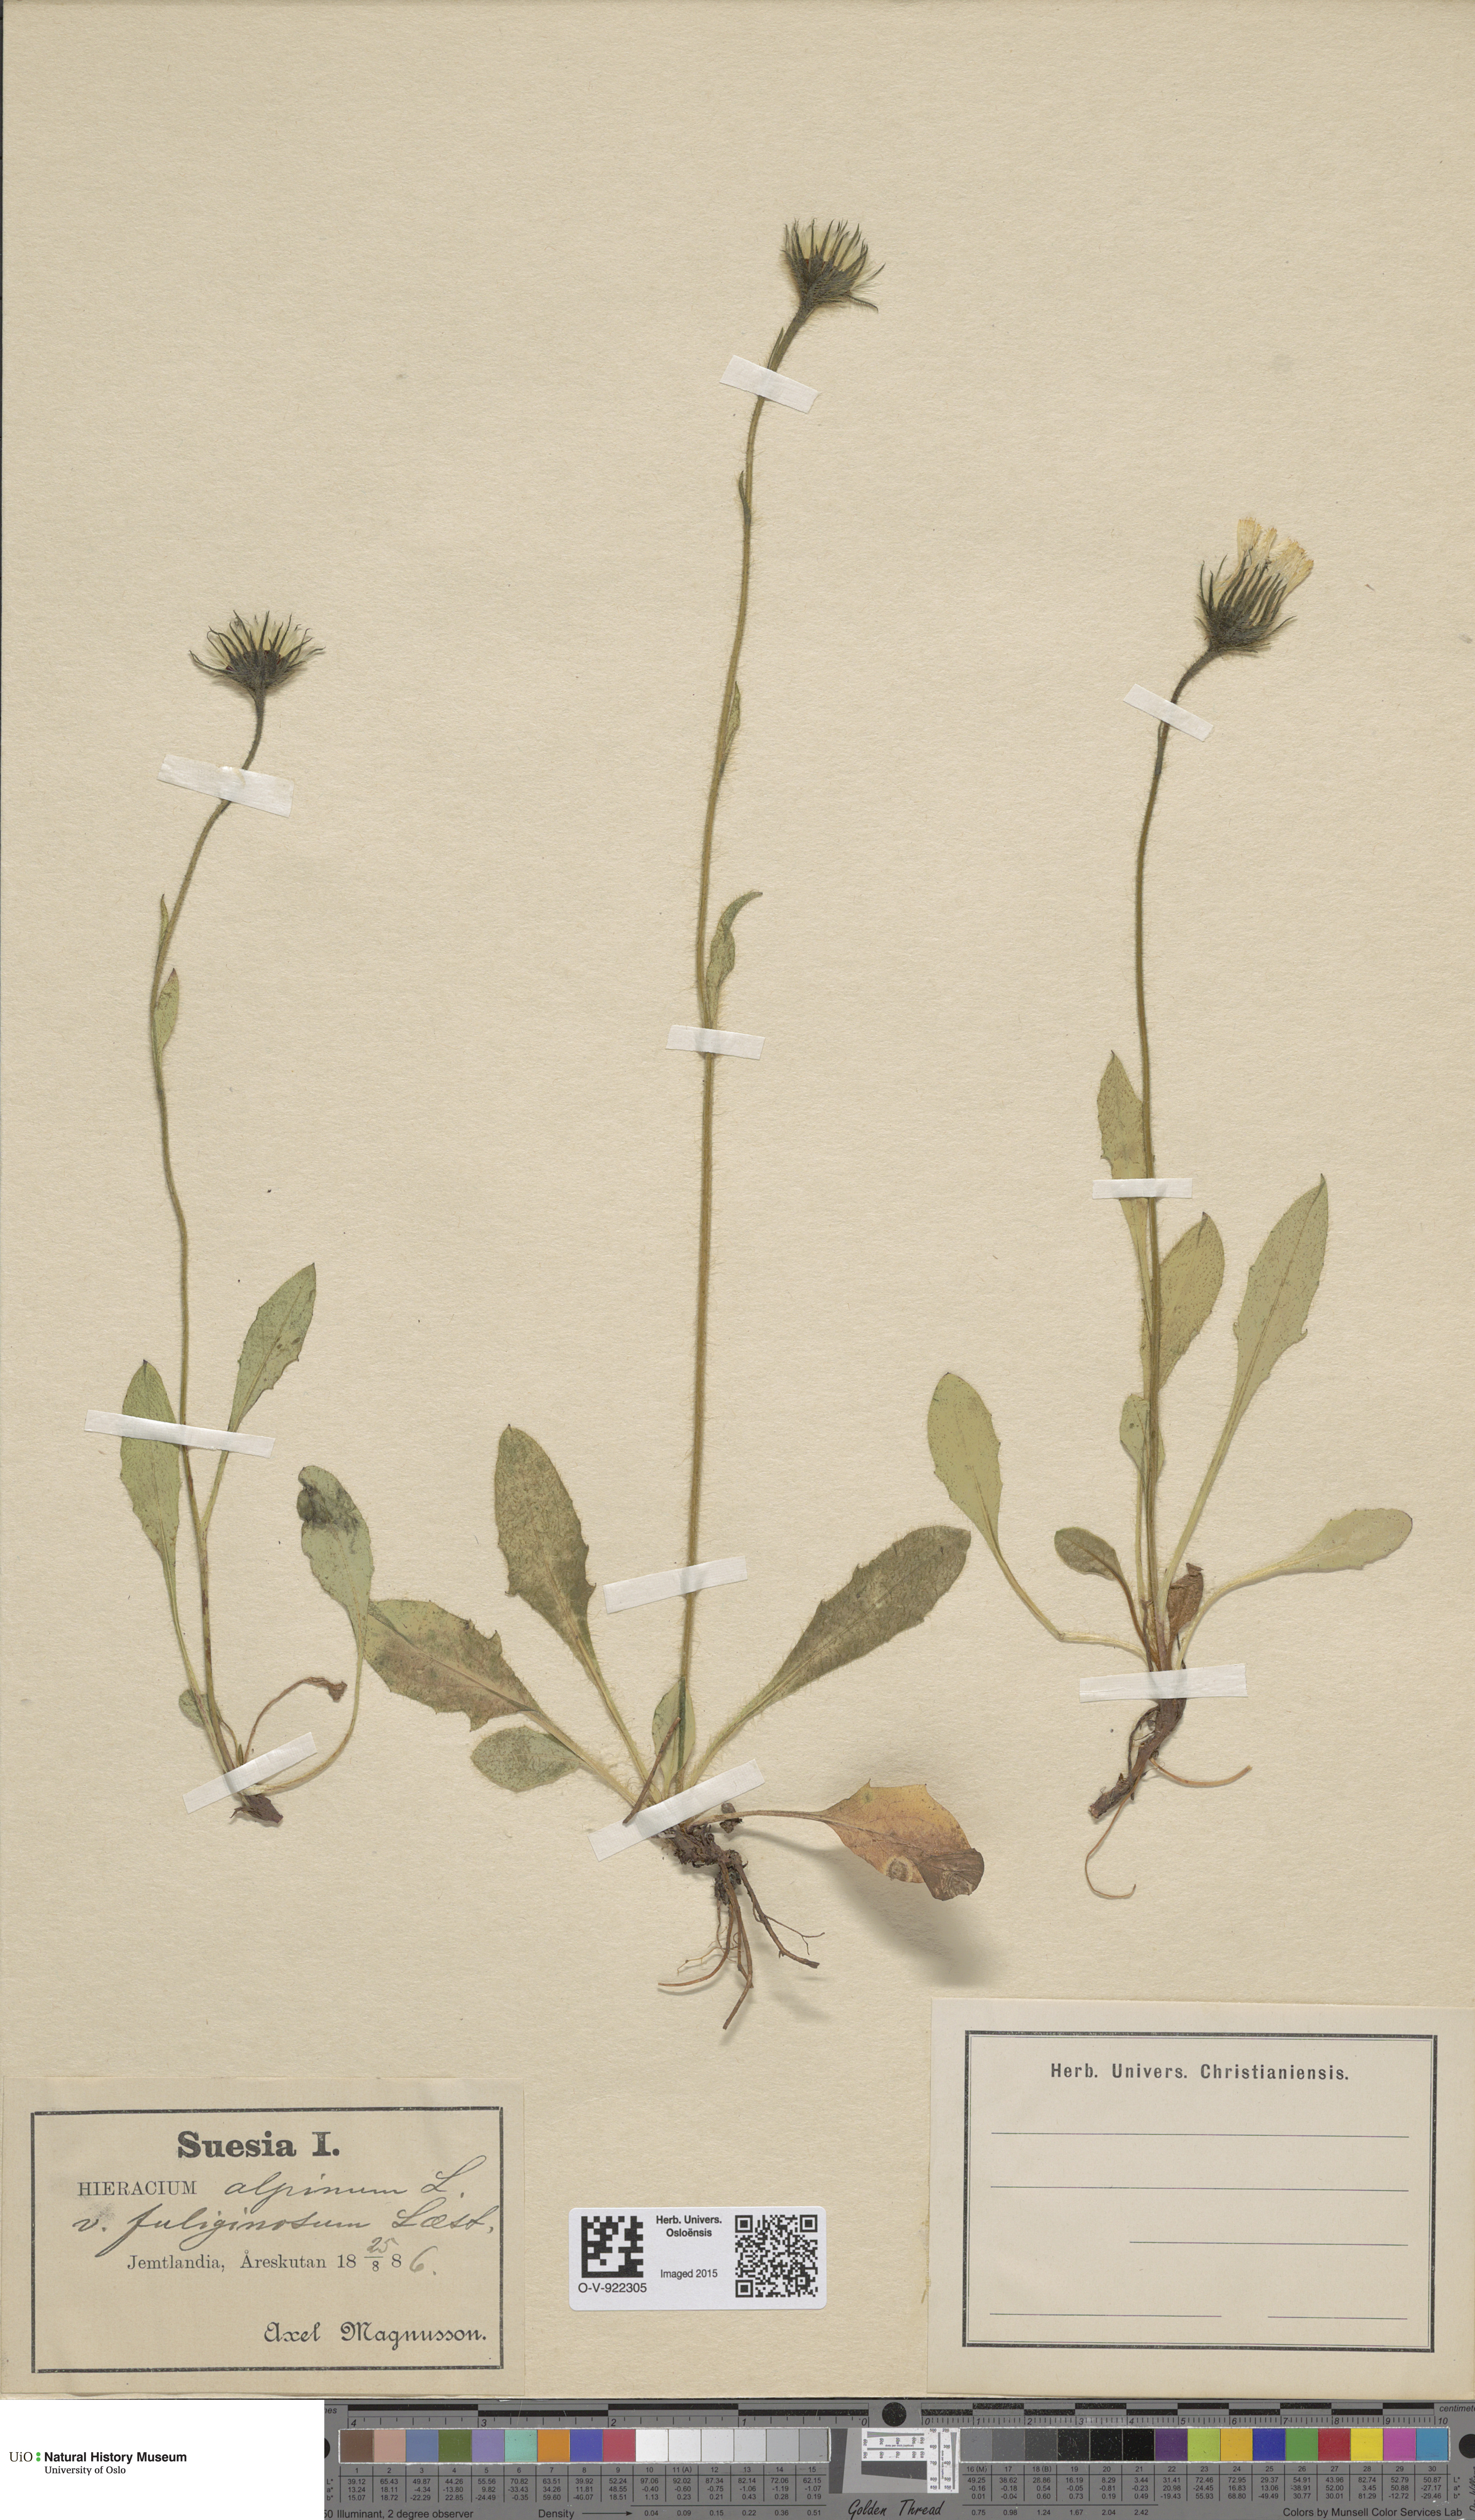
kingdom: Plantae
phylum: Tracheophyta
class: Magnoliopsida
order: Asterales
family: Asteraceae
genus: Hieracium
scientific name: Hieracium alpinum
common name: Alpine hawkweed
